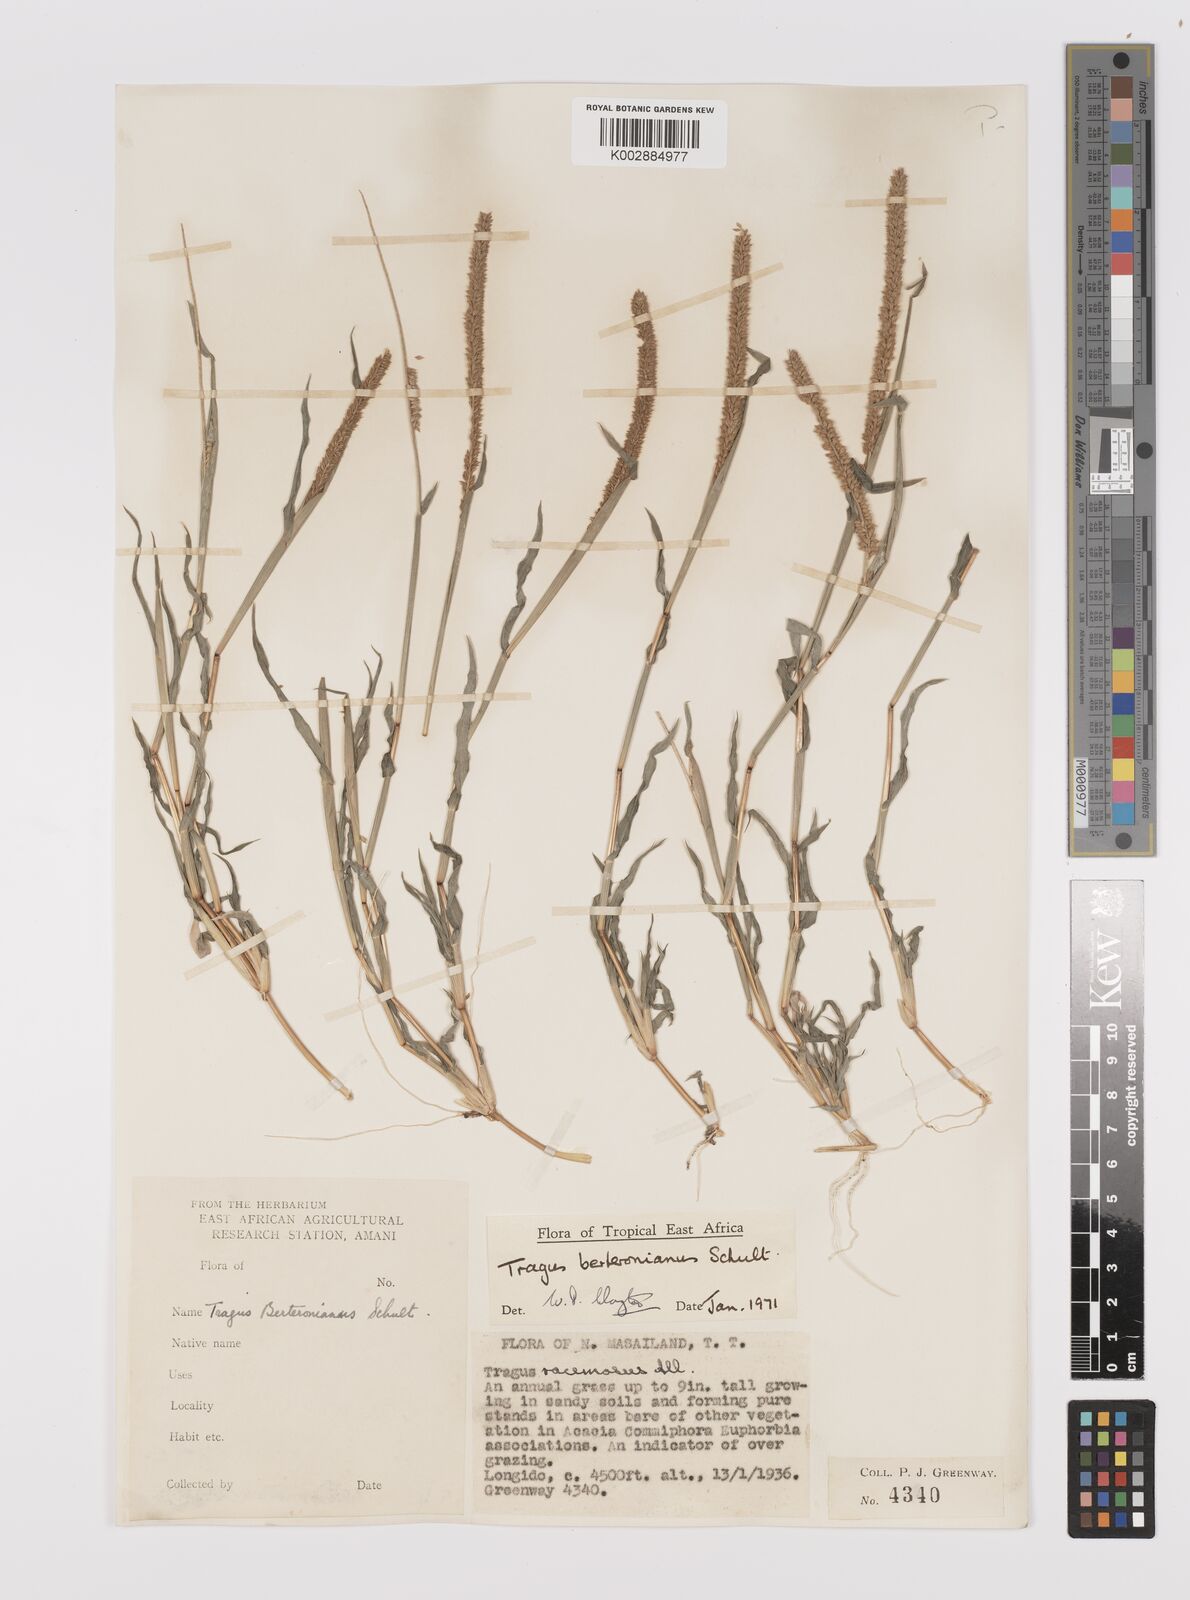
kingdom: Plantae
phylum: Tracheophyta
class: Liliopsida
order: Poales
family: Poaceae
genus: Tragus
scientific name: Tragus berteronianus
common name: African bur-grass
